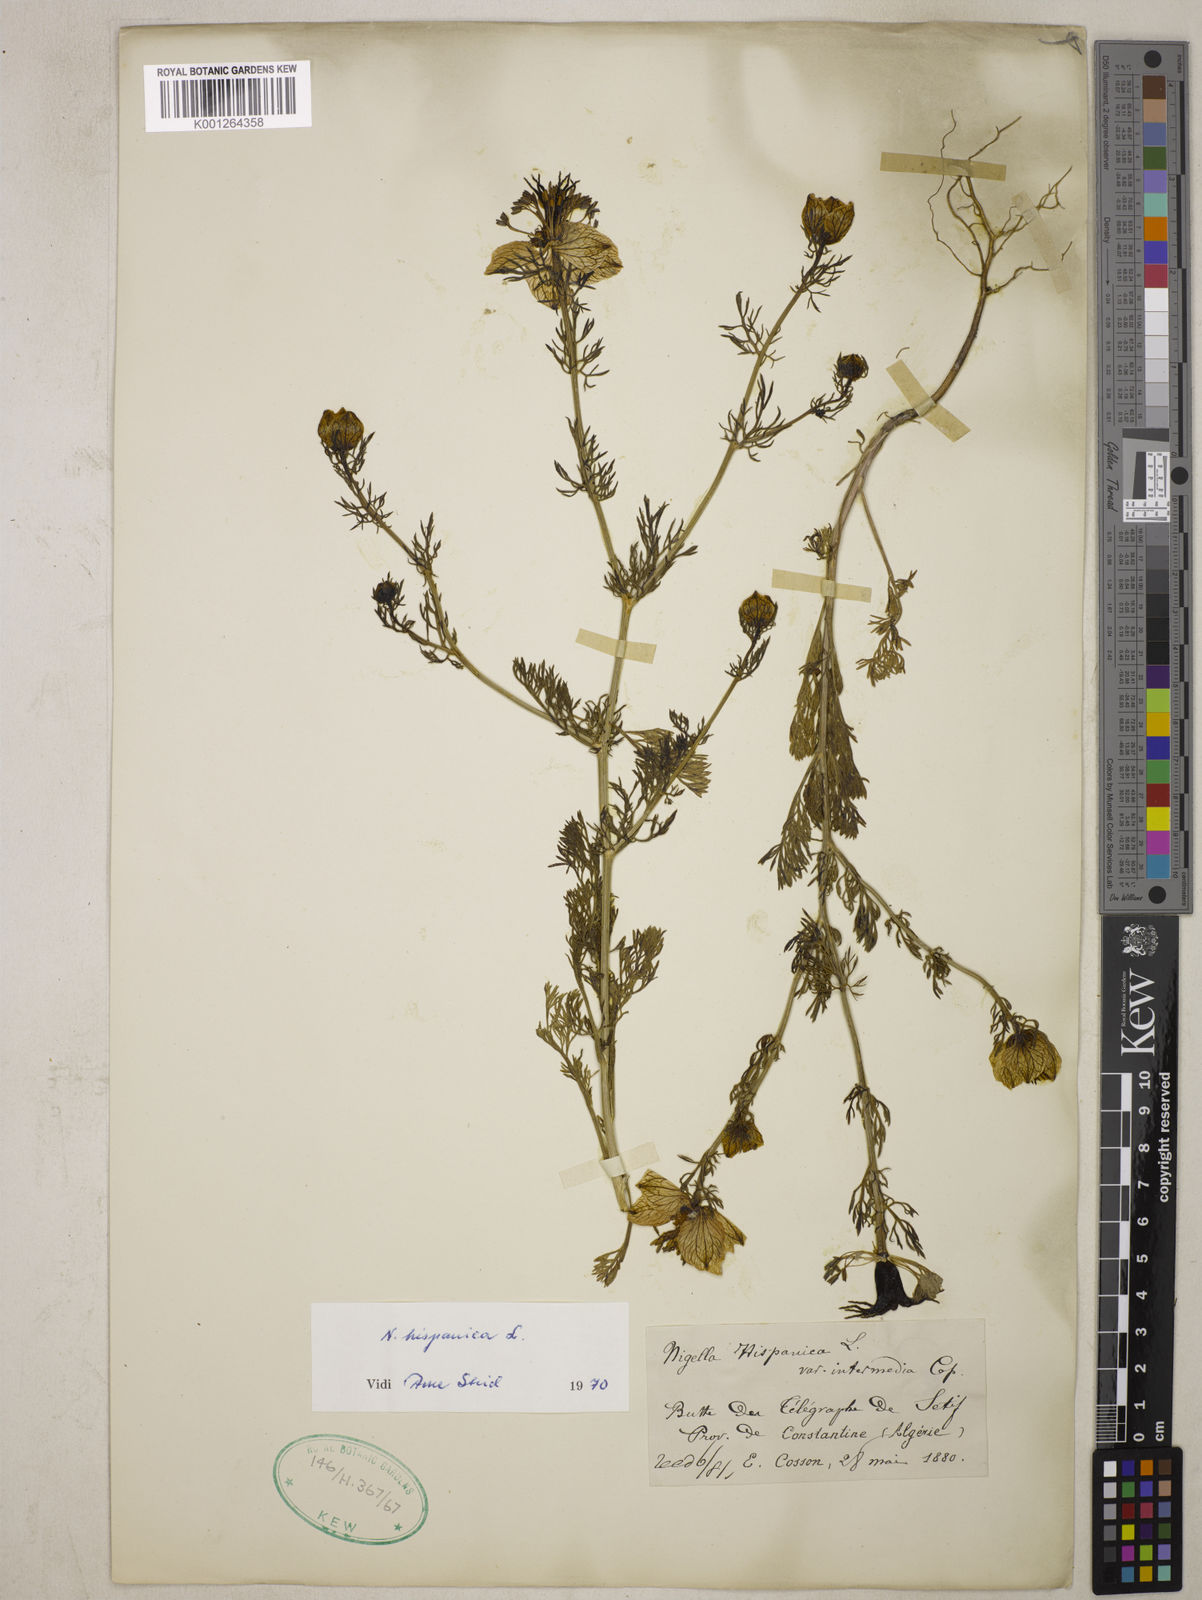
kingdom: Plantae
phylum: Tracheophyta
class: Magnoliopsida
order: Ranunculales
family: Ranunculaceae
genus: Nigella
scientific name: Nigella hispanica
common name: Fennel-flower
